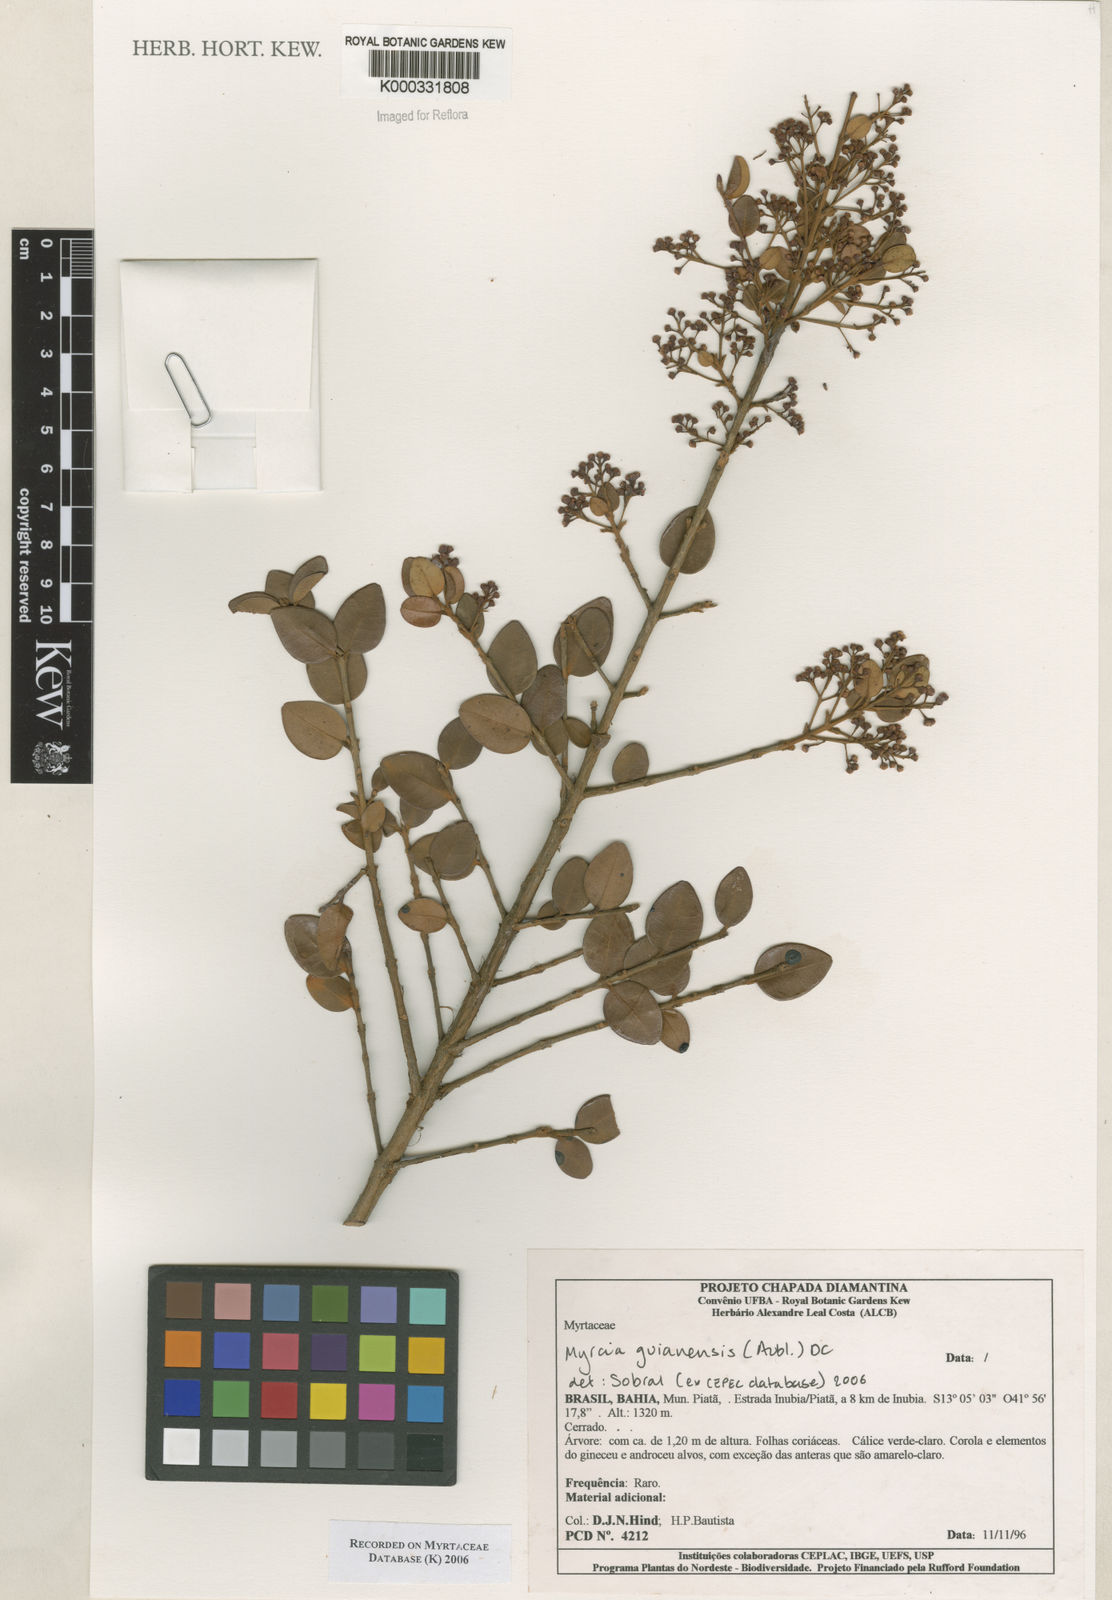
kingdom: Plantae
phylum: Tracheophyta
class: Magnoliopsida
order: Myrtales
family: Myrtaceae
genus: Myrcia
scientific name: Myrcia
